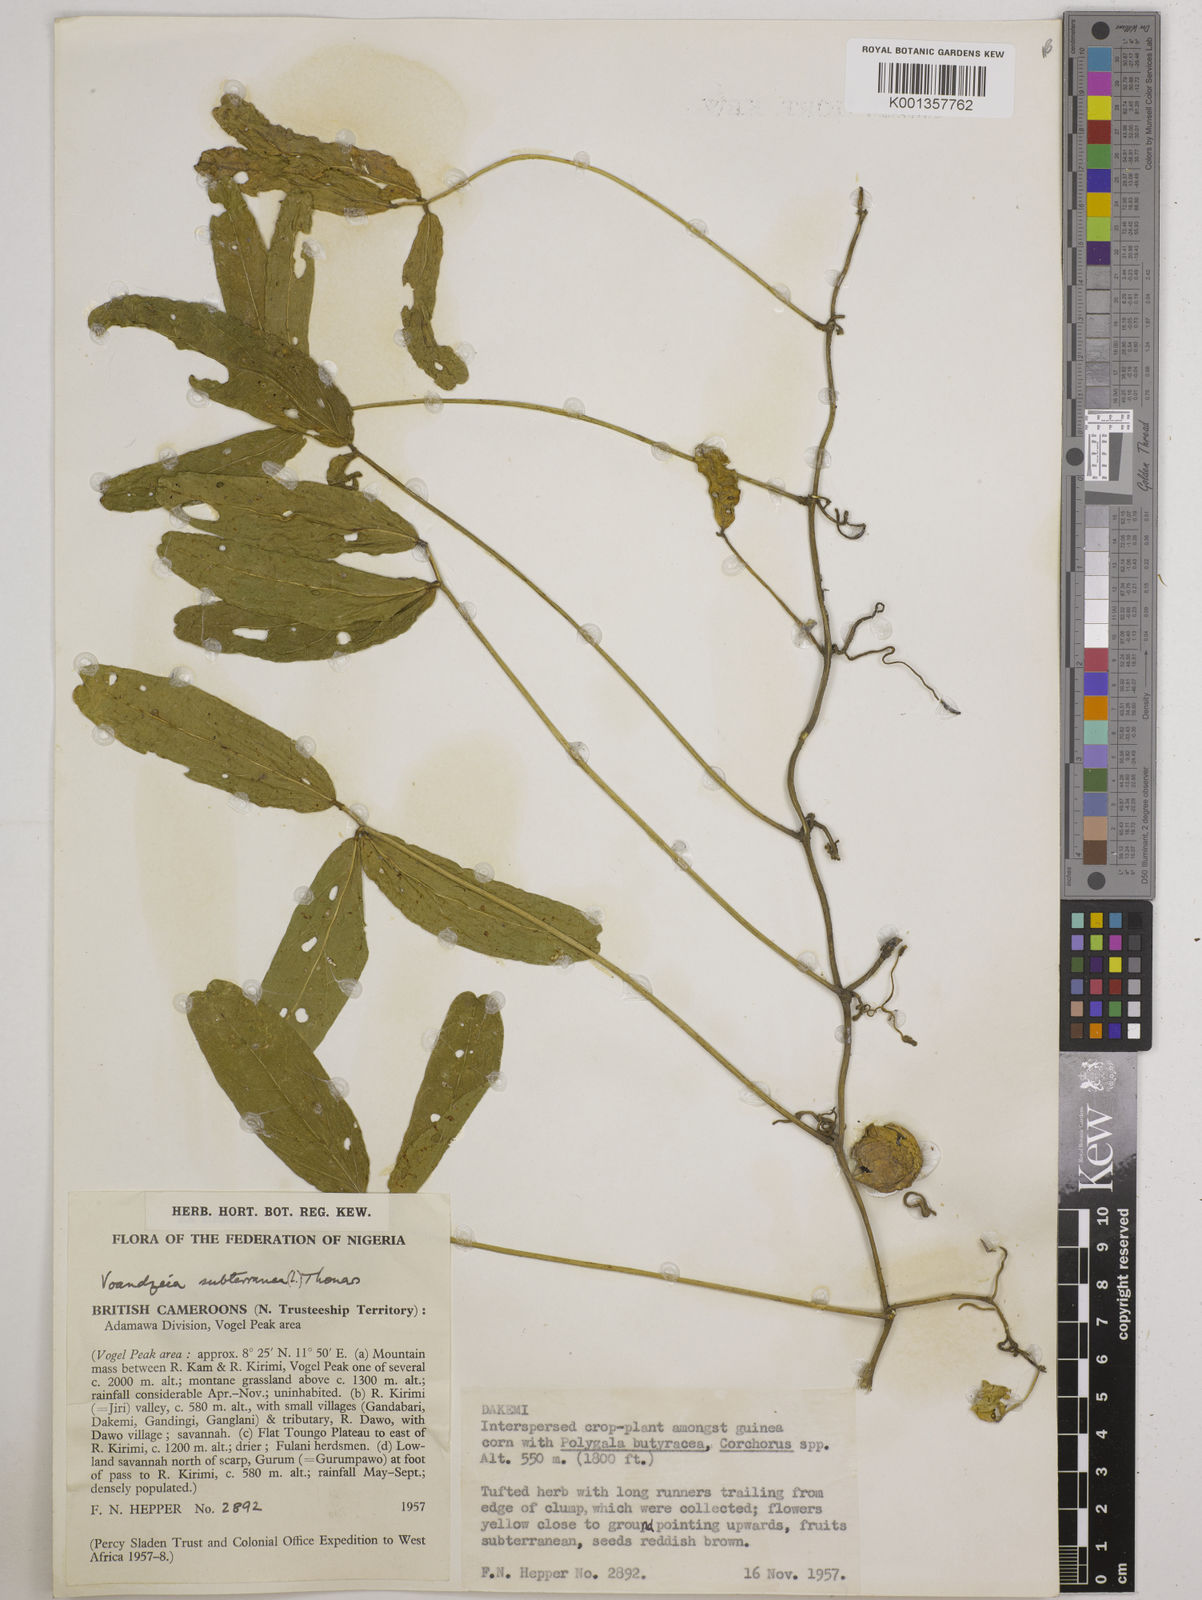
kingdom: Plantae
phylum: Tracheophyta
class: Magnoliopsida
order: Fabales
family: Fabaceae
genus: Vigna
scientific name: Vigna subterranea
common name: Bambara groundnut
